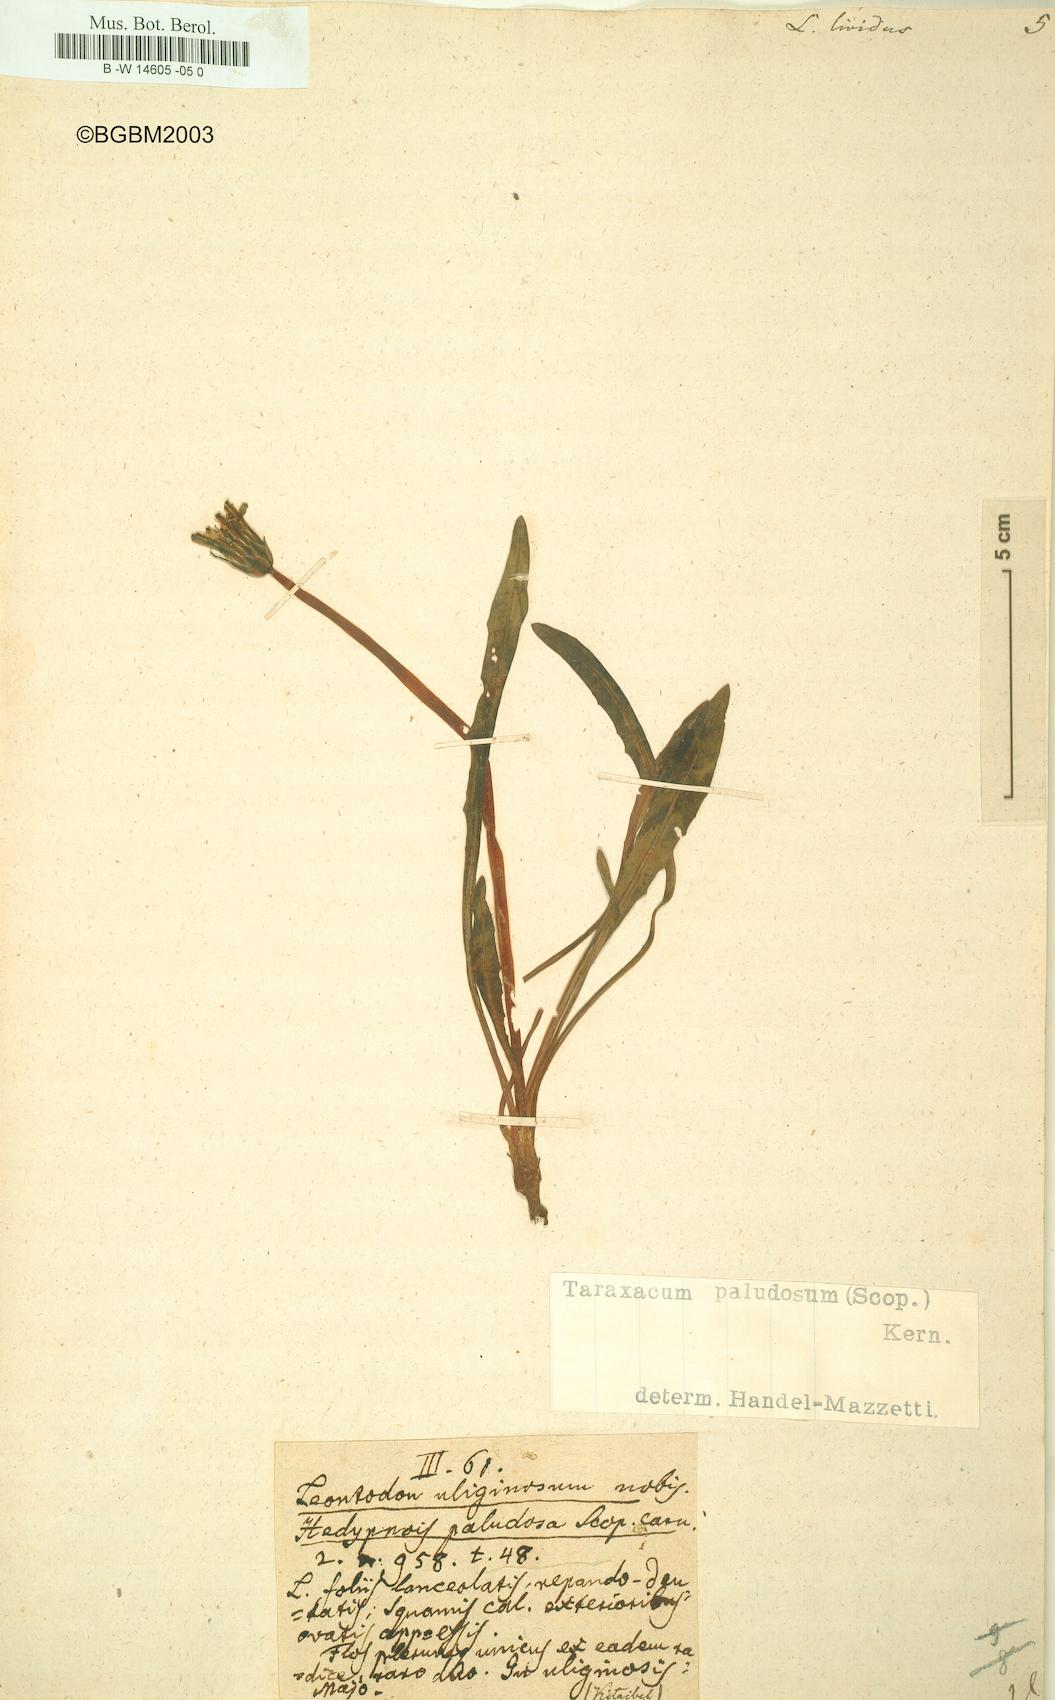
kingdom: Plantae
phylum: Tracheophyta
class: Magnoliopsida
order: Asterales
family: Asteraceae
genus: Taraxacum
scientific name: Taraxacum paludosum
